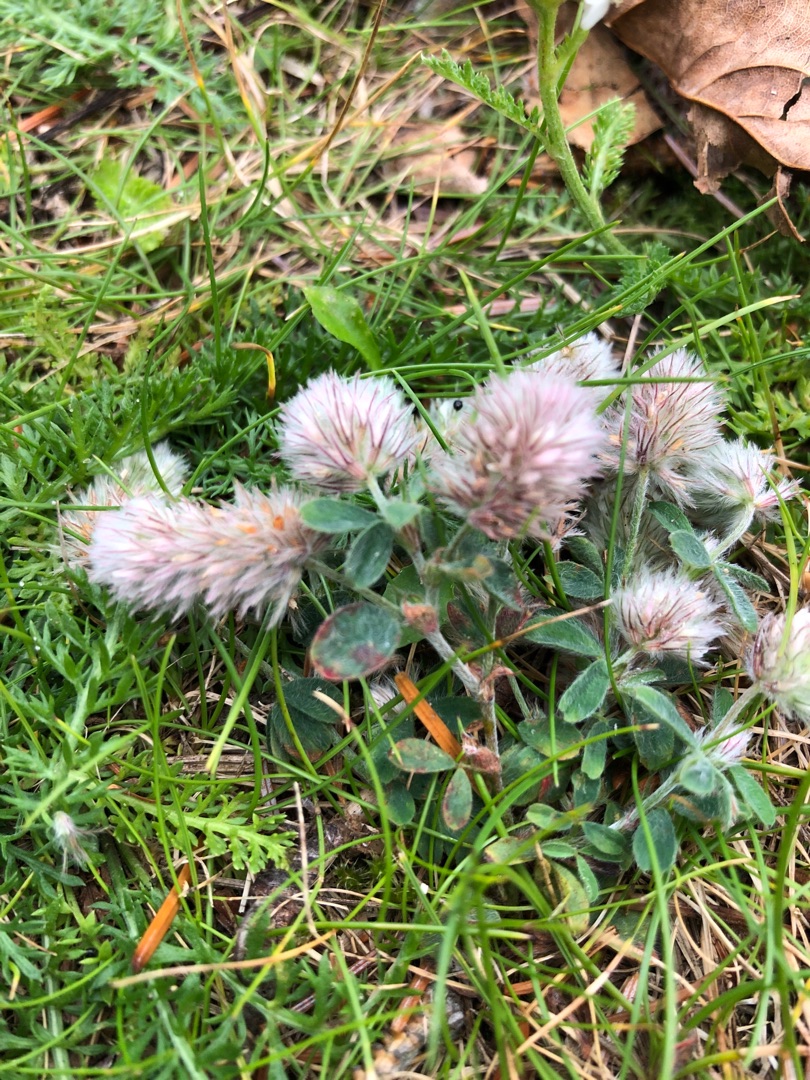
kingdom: Plantae
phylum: Tracheophyta
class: Magnoliopsida
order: Fabales
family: Fabaceae
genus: Trifolium
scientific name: Trifolium arvense
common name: Hare-kløver
